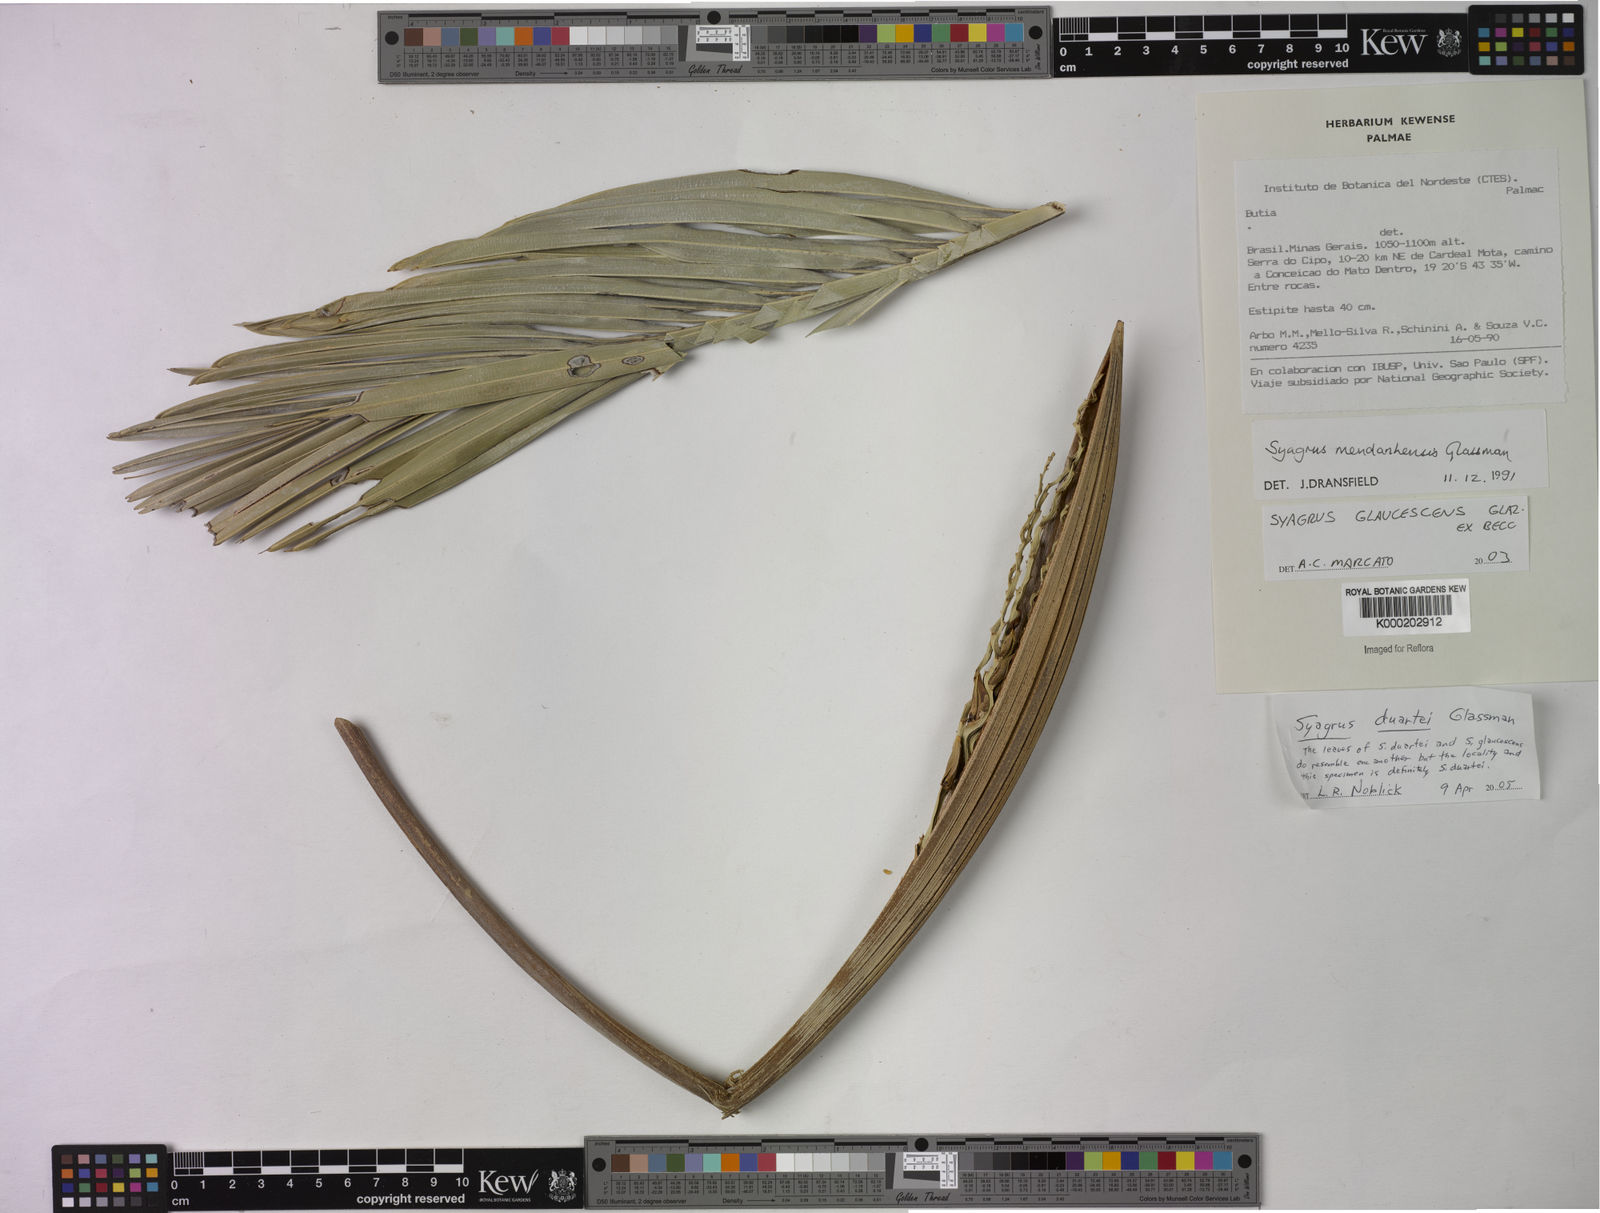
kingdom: Plantae
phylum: Tracheophyta
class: Liliopsida
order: Arecales
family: Arecaceae
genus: Syagrus
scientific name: Syagrus glaucescens
